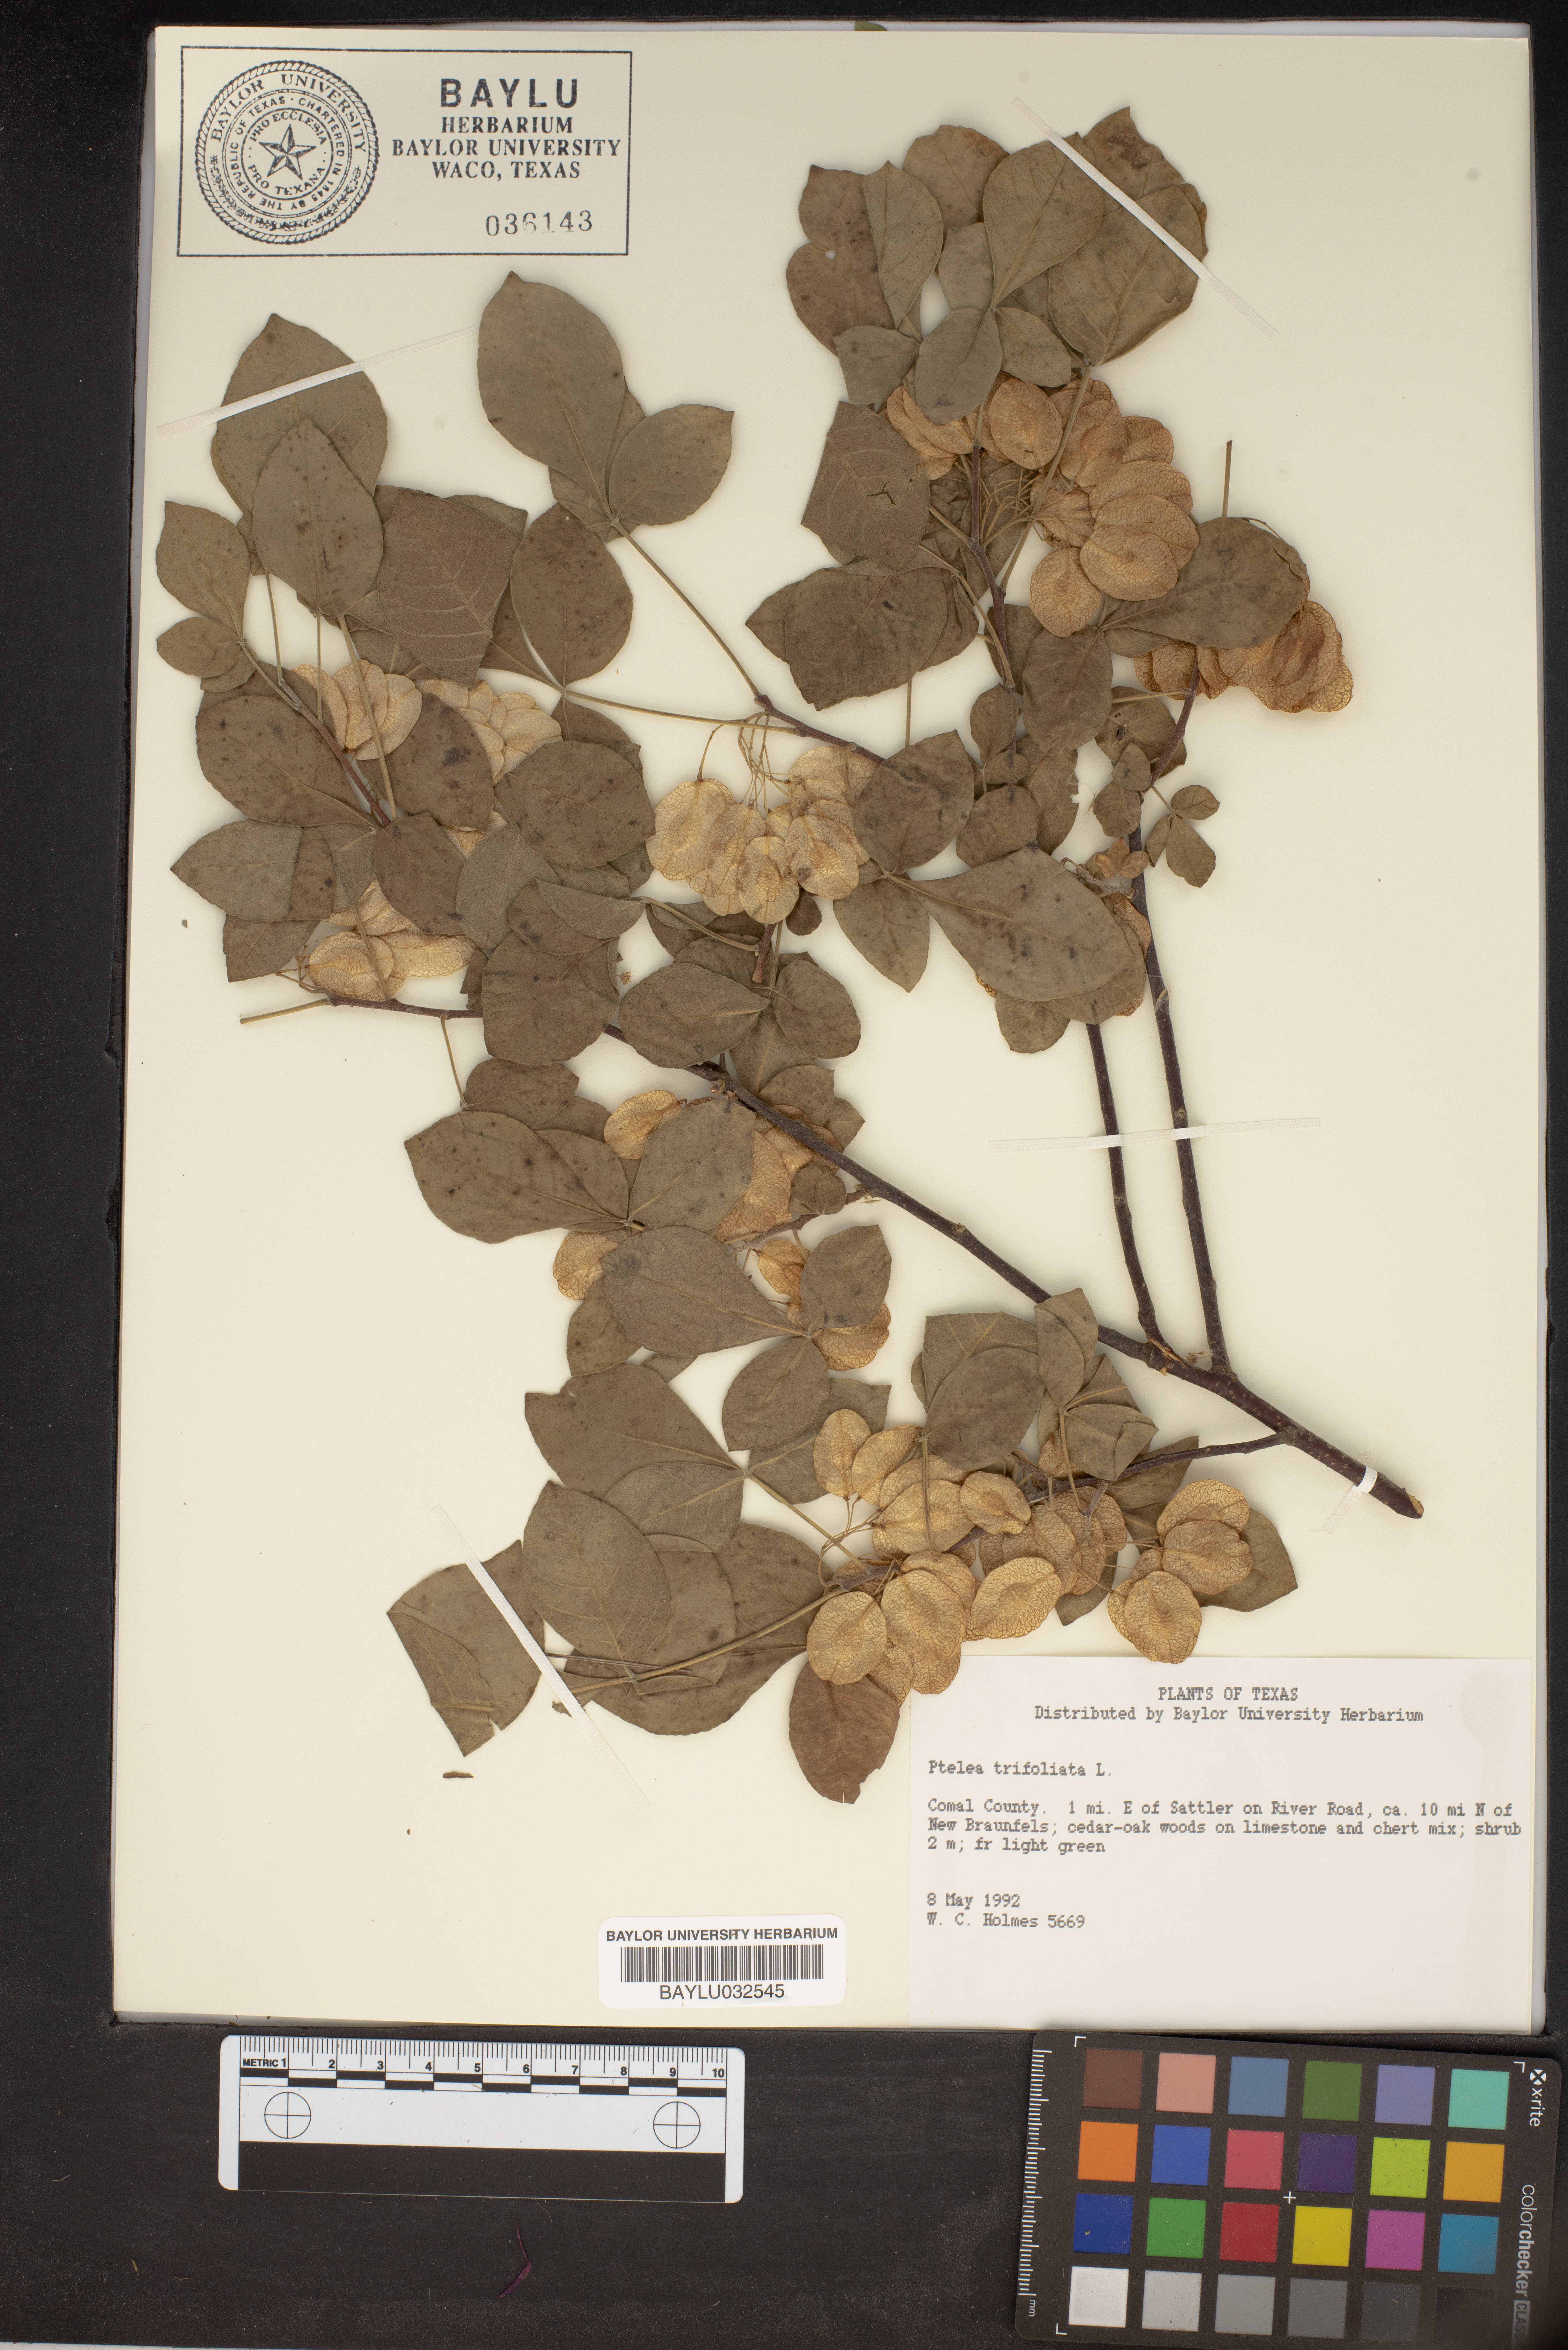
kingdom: Plantae
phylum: Tracheophyta
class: Magnoliopsida
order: Sapindales
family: Rutaceae
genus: Ptelea
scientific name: Ptelea trifoliata
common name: Common hop-tree
